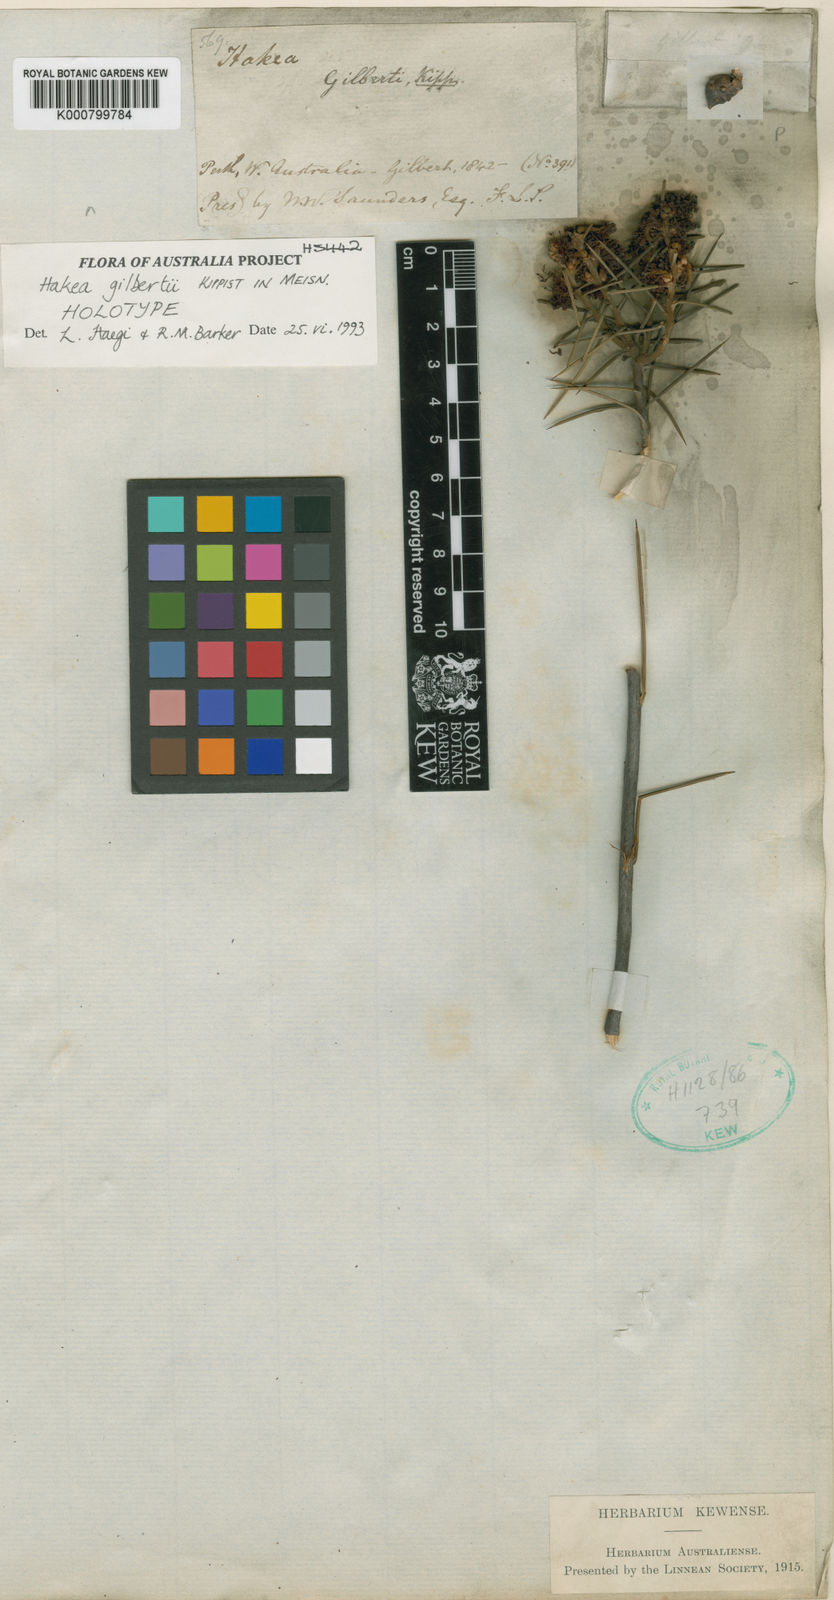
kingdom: Plantae
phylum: Tracheophyta
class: Magnoliopsida
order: Proteales
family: Proteaceae
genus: Hakea
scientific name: Hakea gilbertii
